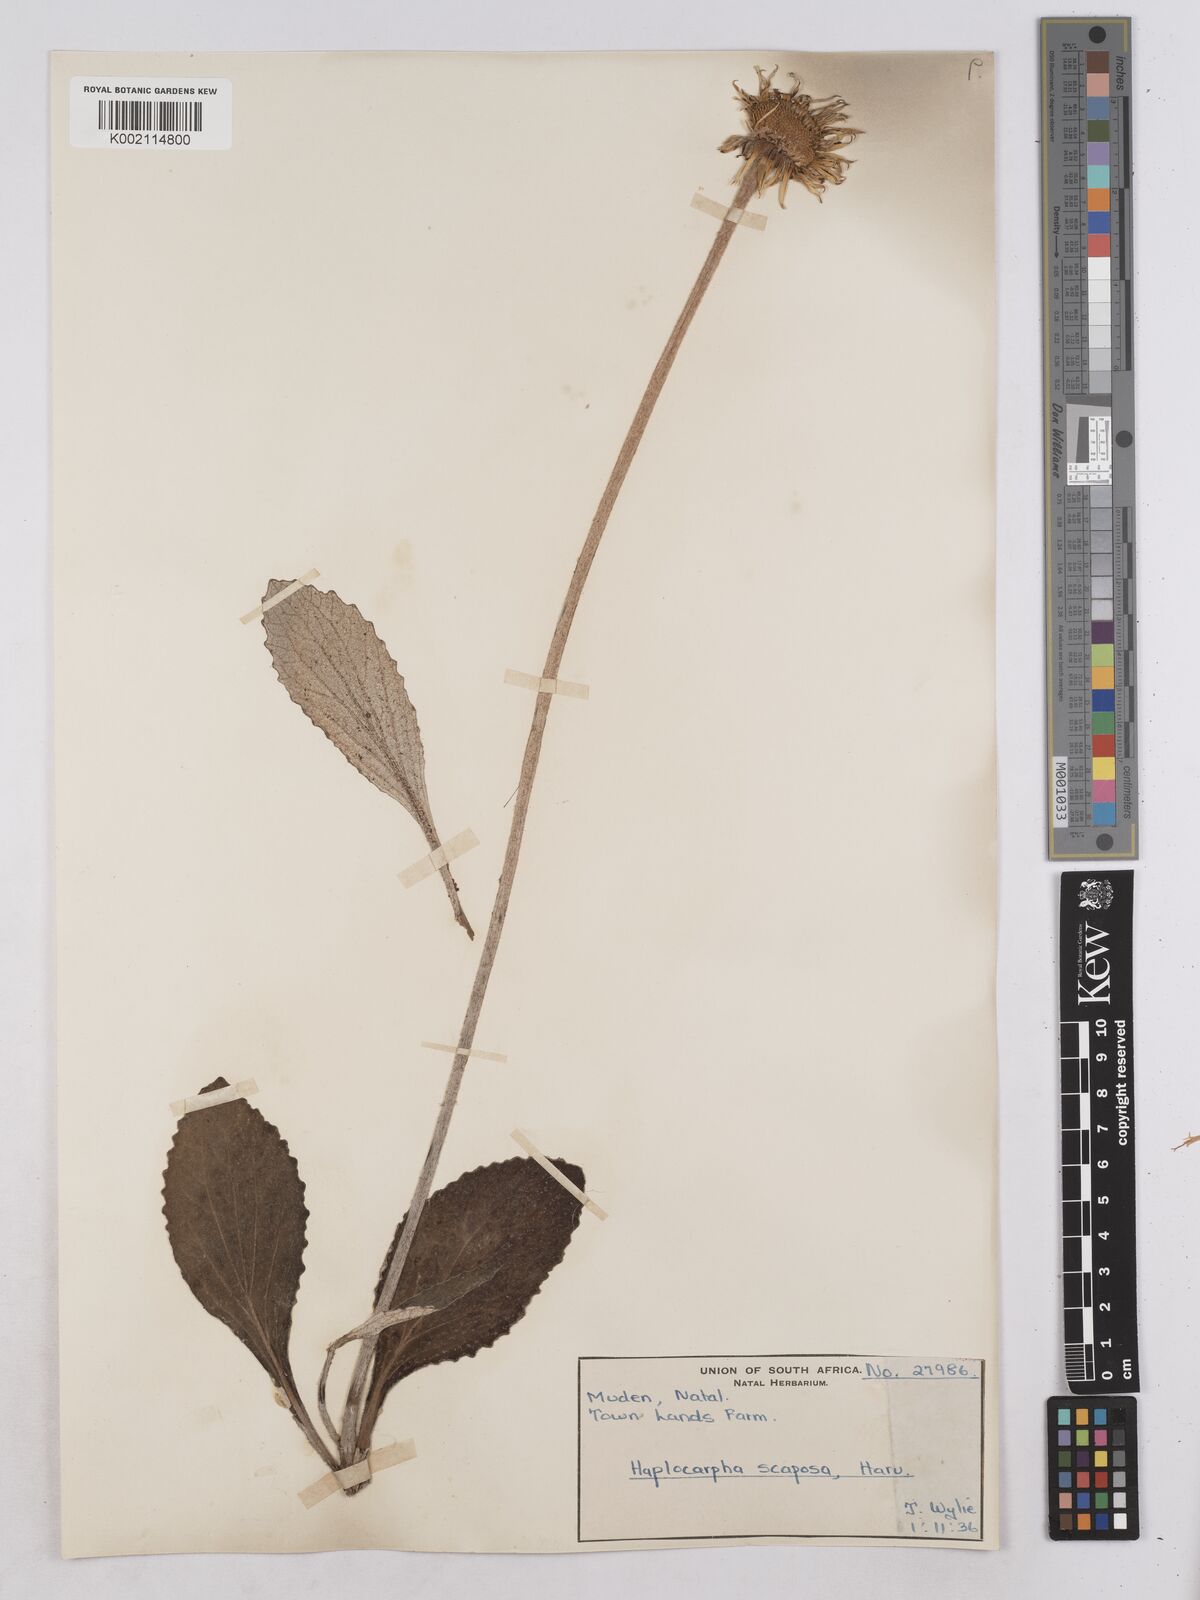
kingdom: Plantae
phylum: Tracheophyta
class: Magnoliopsida
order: Asterales
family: Asteraceae
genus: Haplocarpha
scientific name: Haplocarpha scaposa
